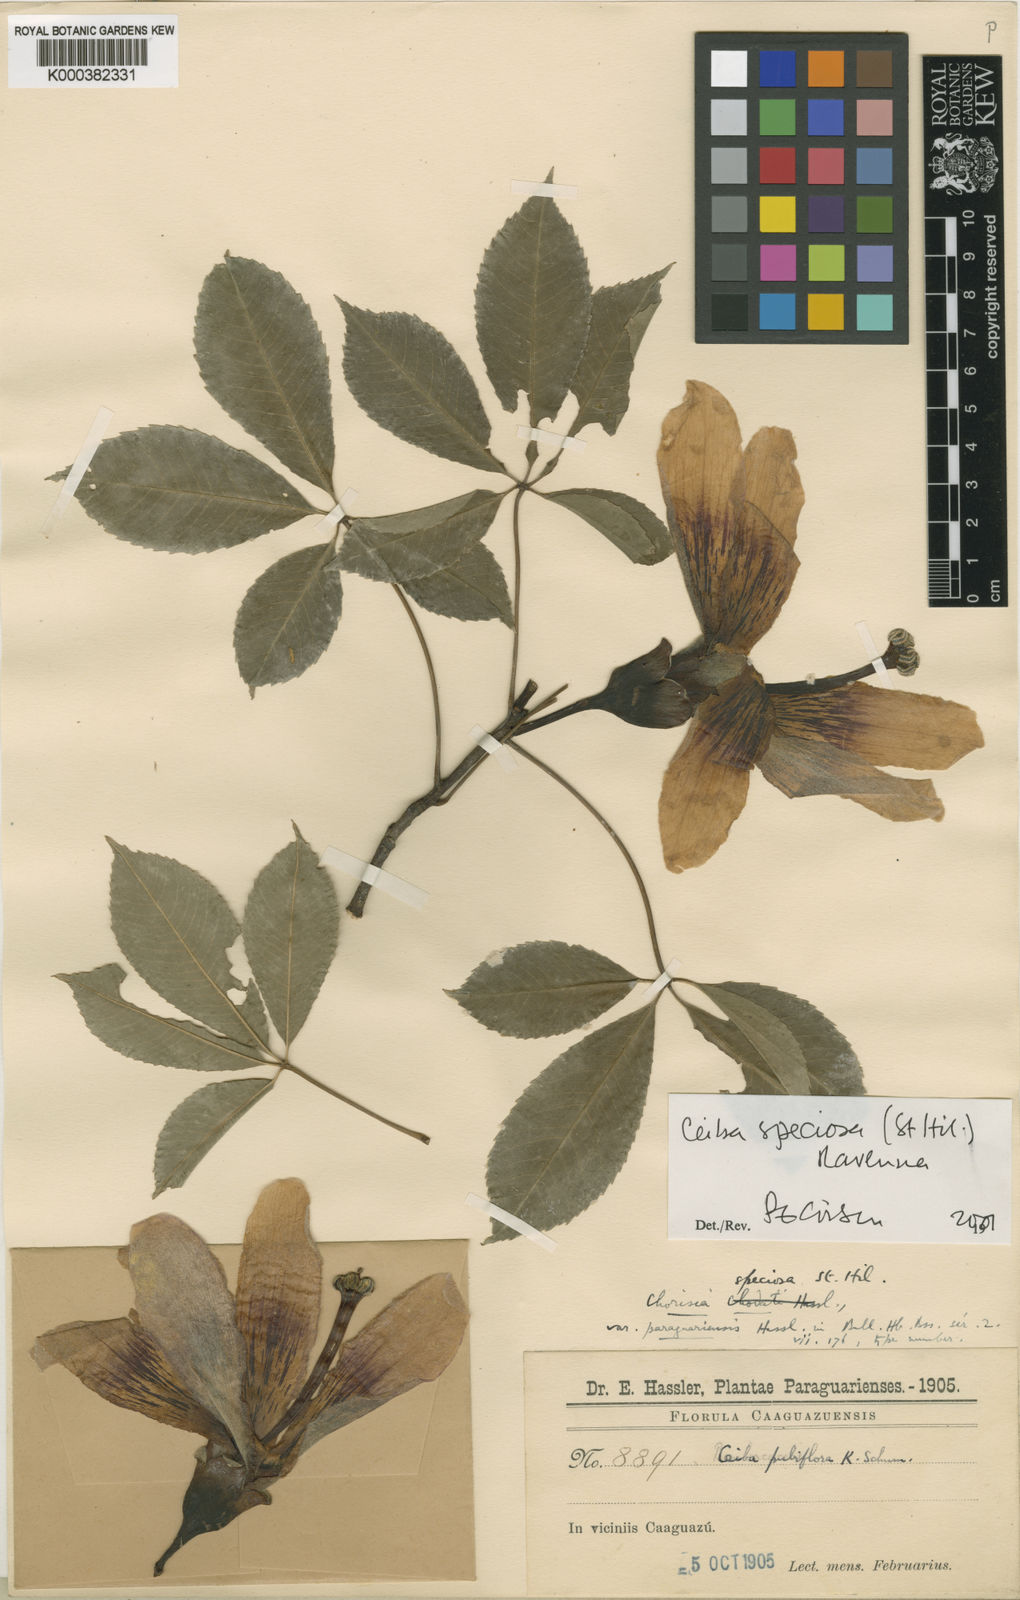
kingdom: Plantae
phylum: Tracheophyta
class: Magnoliopsida
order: Malvales
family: Malvaceae
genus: Ceiba
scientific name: Ceiba
